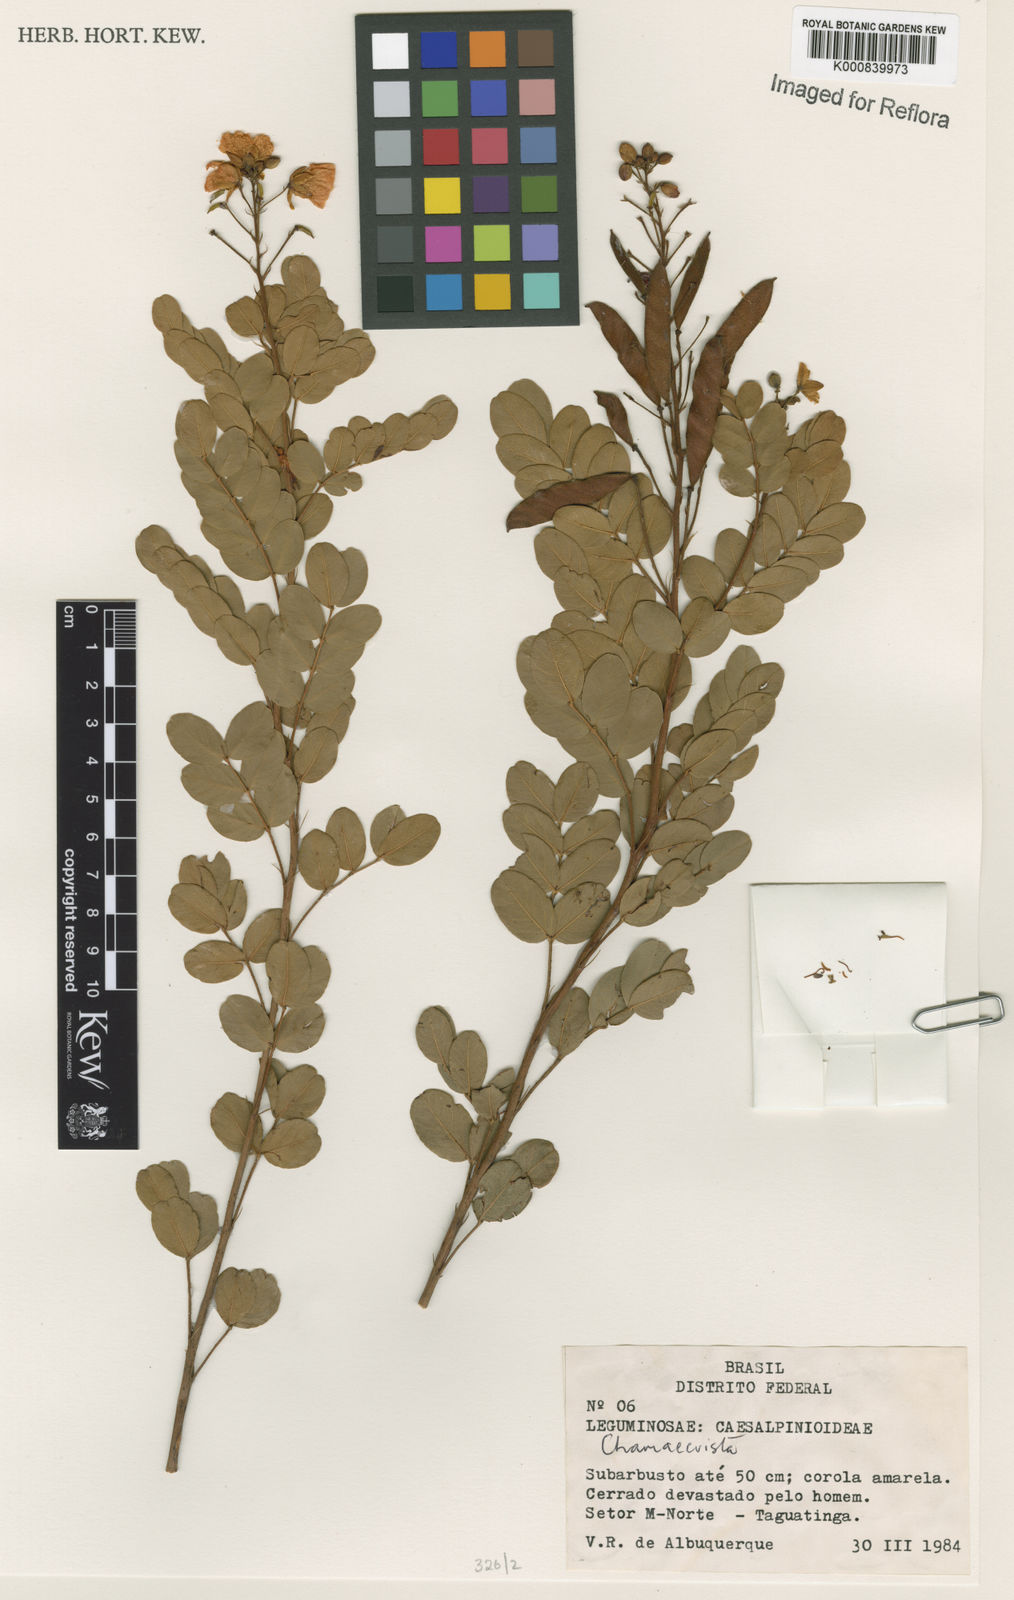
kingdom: Plantae
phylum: Tracheophyta
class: Magnoliopsida
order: Fabales
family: Fabaceae
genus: Chamaecrista
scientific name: Chamaecrista planaltoana
